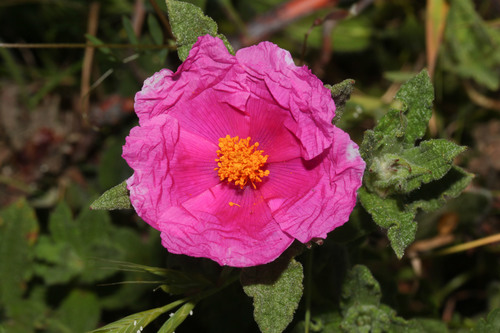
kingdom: Plantae
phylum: Tracheophyta
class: Magnoliopsida
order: Malvales
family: Cistaceae
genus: Cistus
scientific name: Cistus crispus
